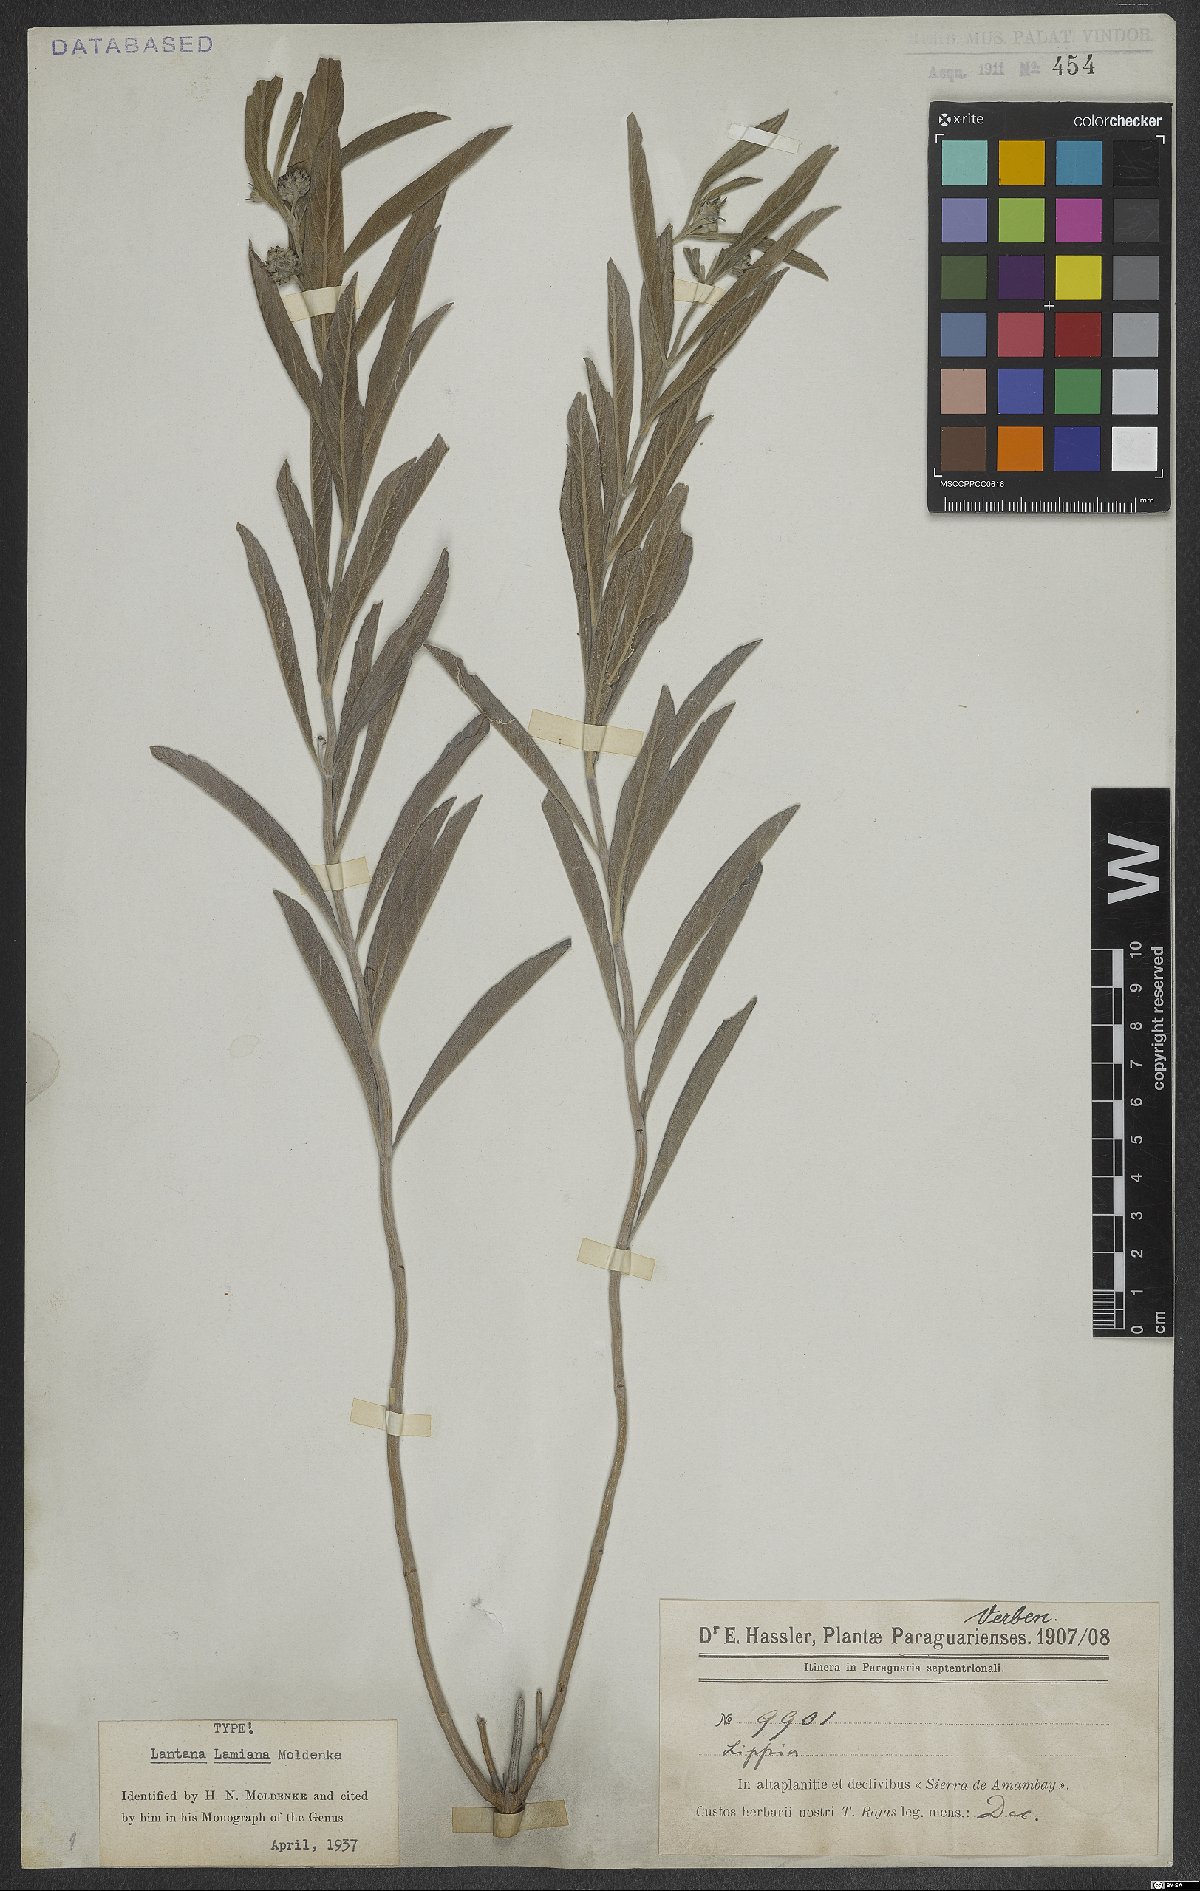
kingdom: Plantae
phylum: Tracheophyta
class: Magnoliopsida
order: Lamiales
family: Verbenaceae
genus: Lippia
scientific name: Lippia lamiana
